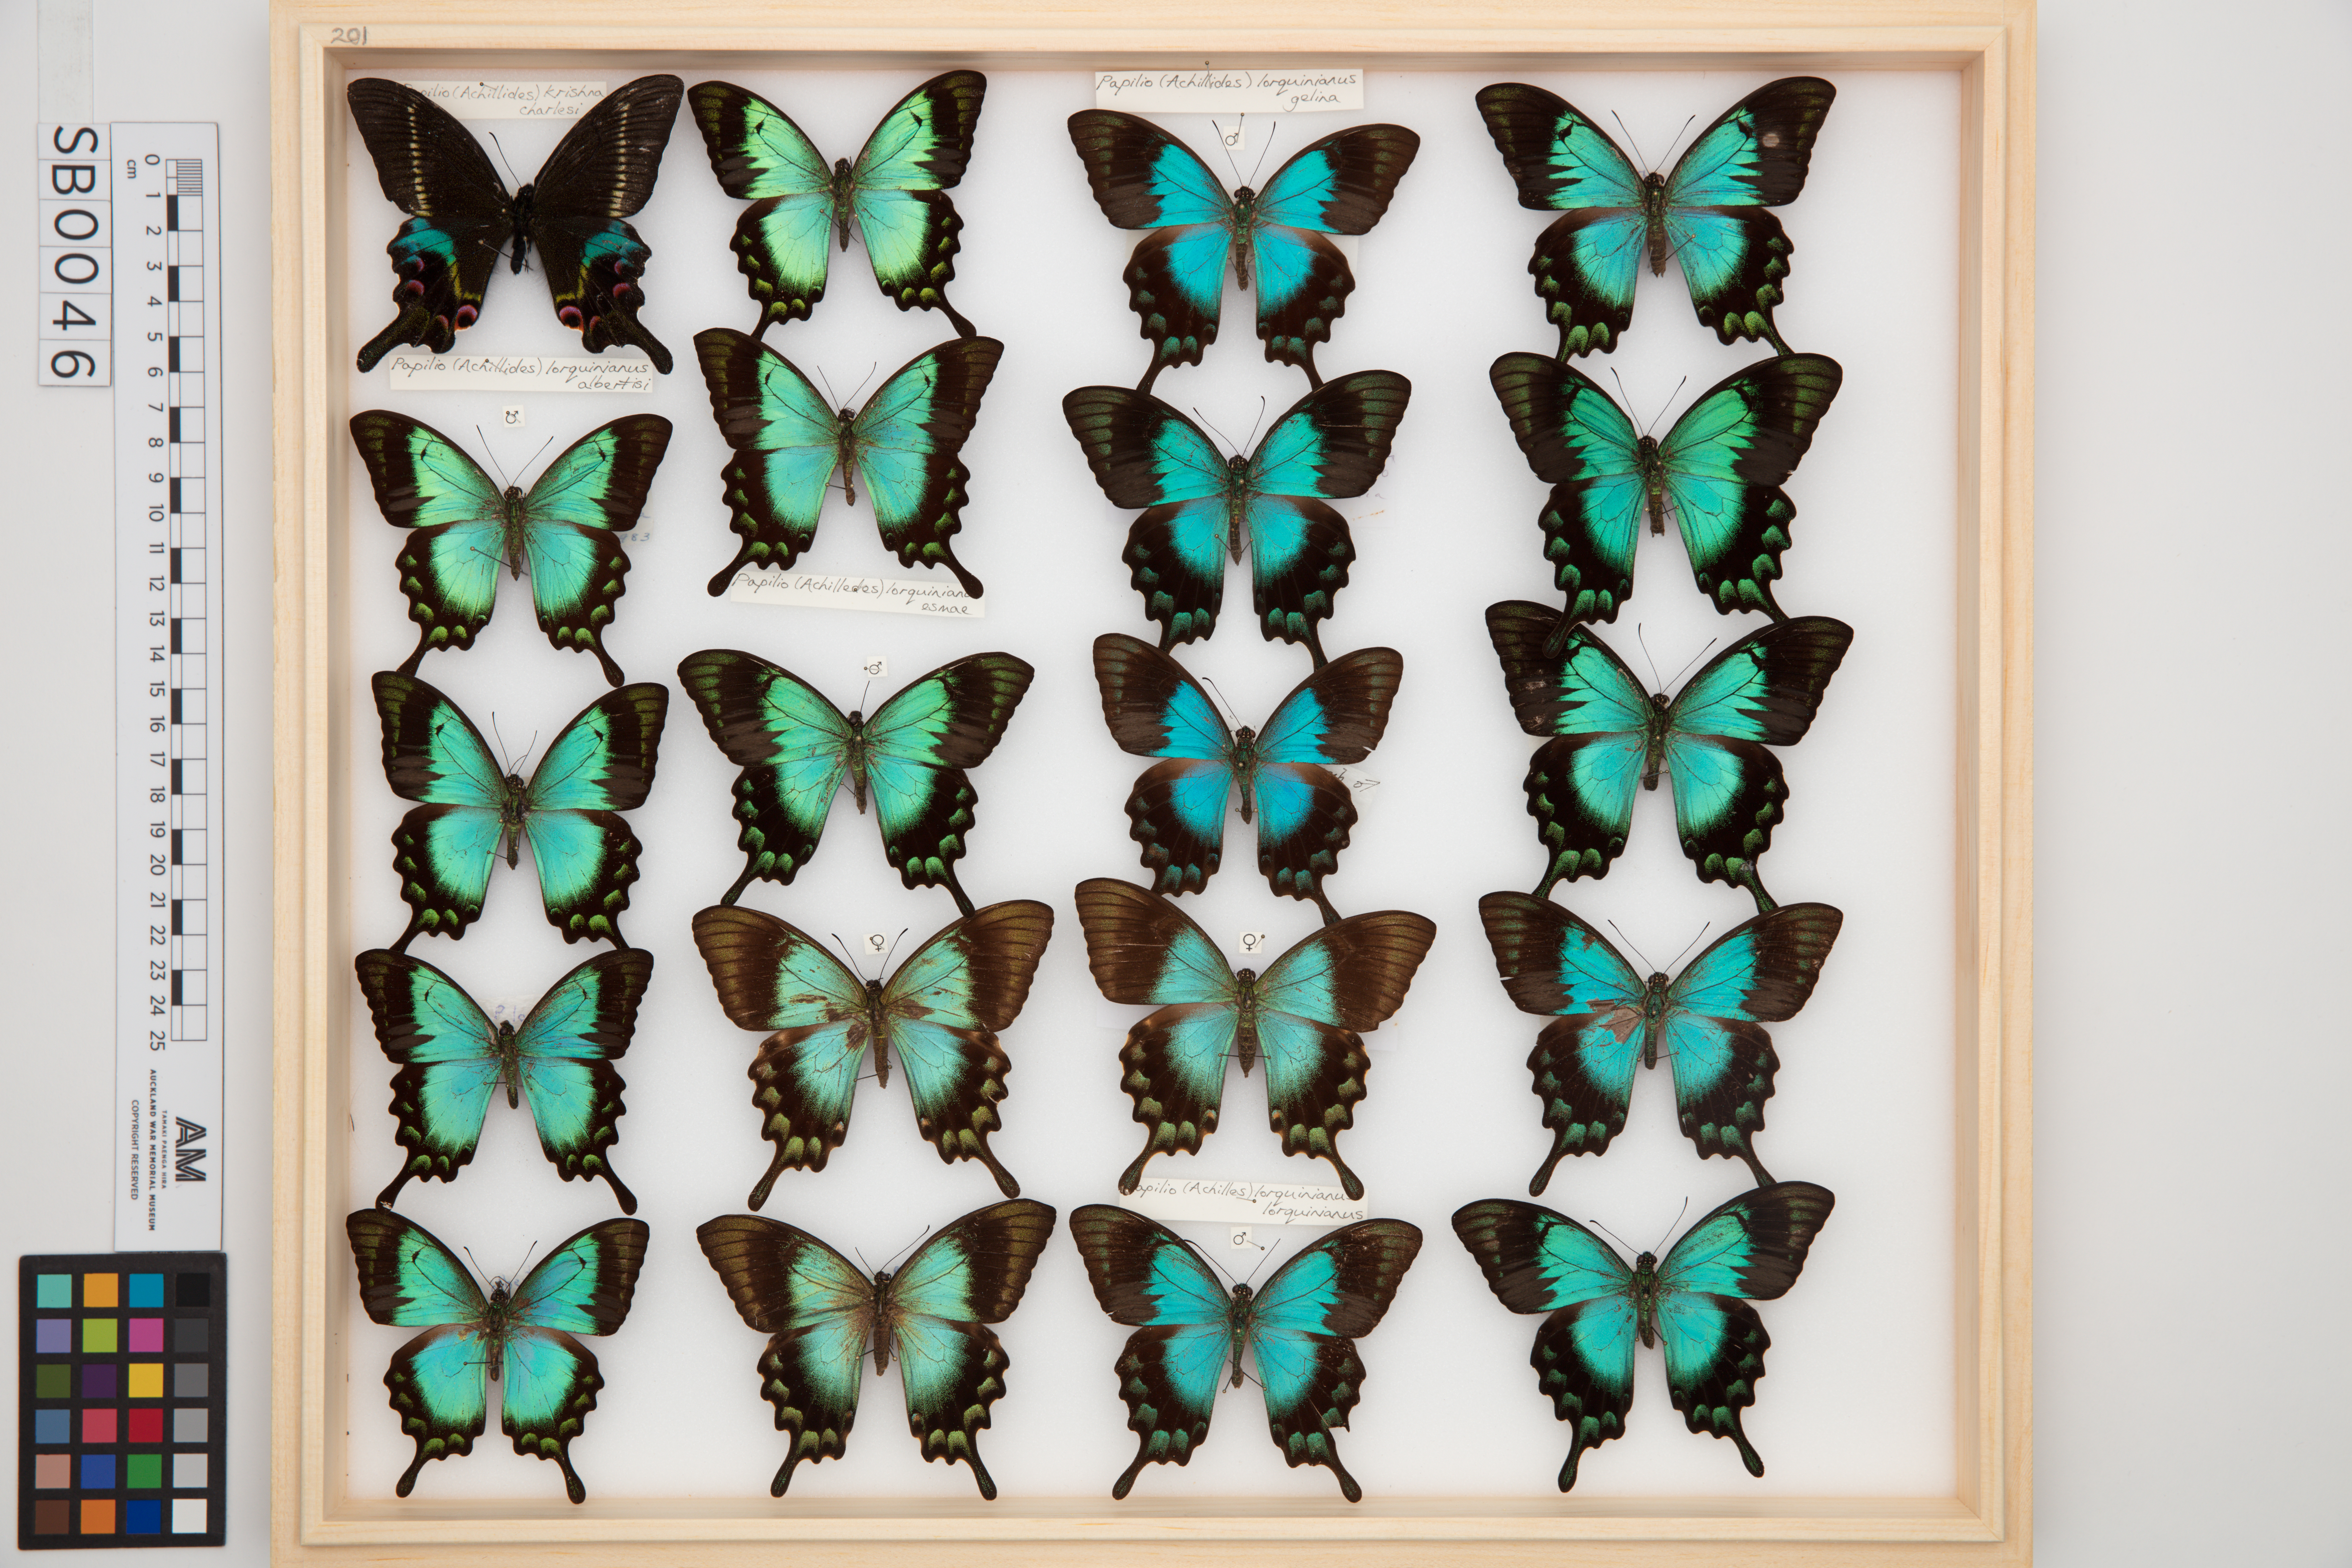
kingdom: Animalia
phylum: Arthropoda
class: Insecta
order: Lepidoptera
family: Papilionidae
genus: Papilio
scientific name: Papilio lorquinianus
